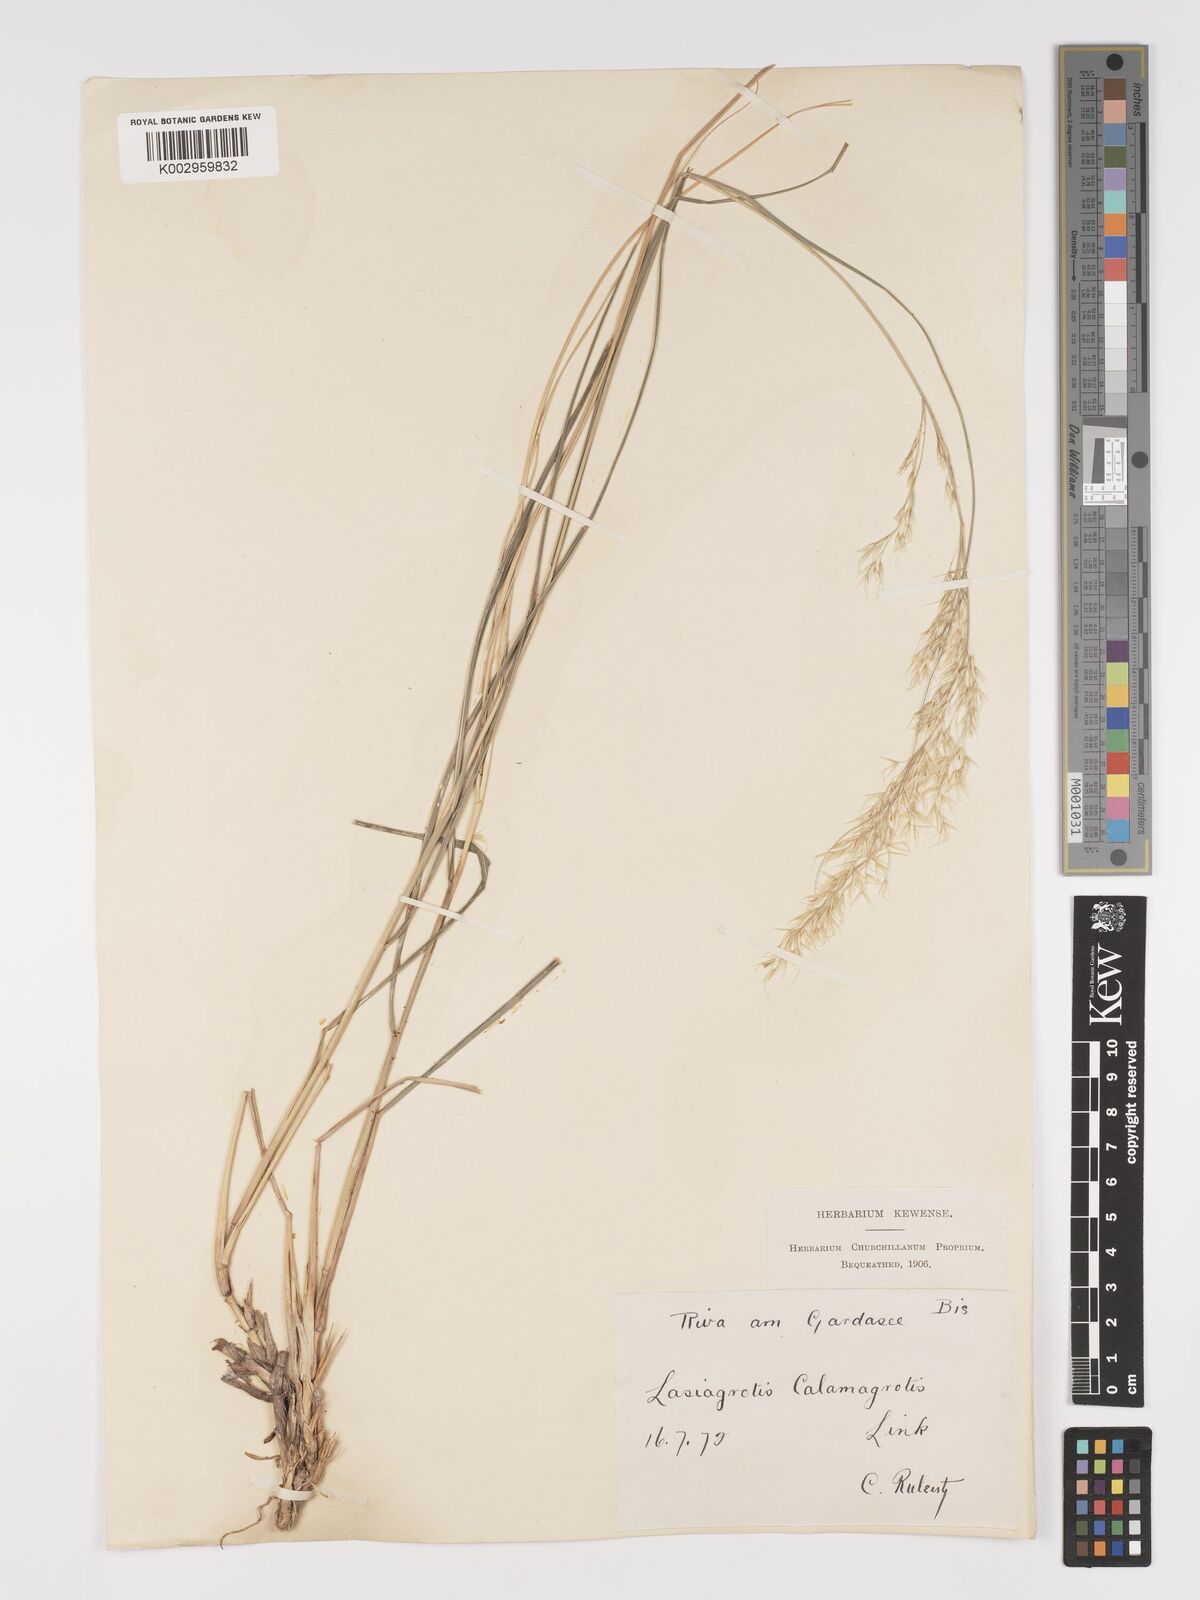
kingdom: Plantae
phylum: Tracheophyta
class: Liliopsida
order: Poales
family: Poaceae
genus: Achnatherum
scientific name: Achnatherum calamagrostis
